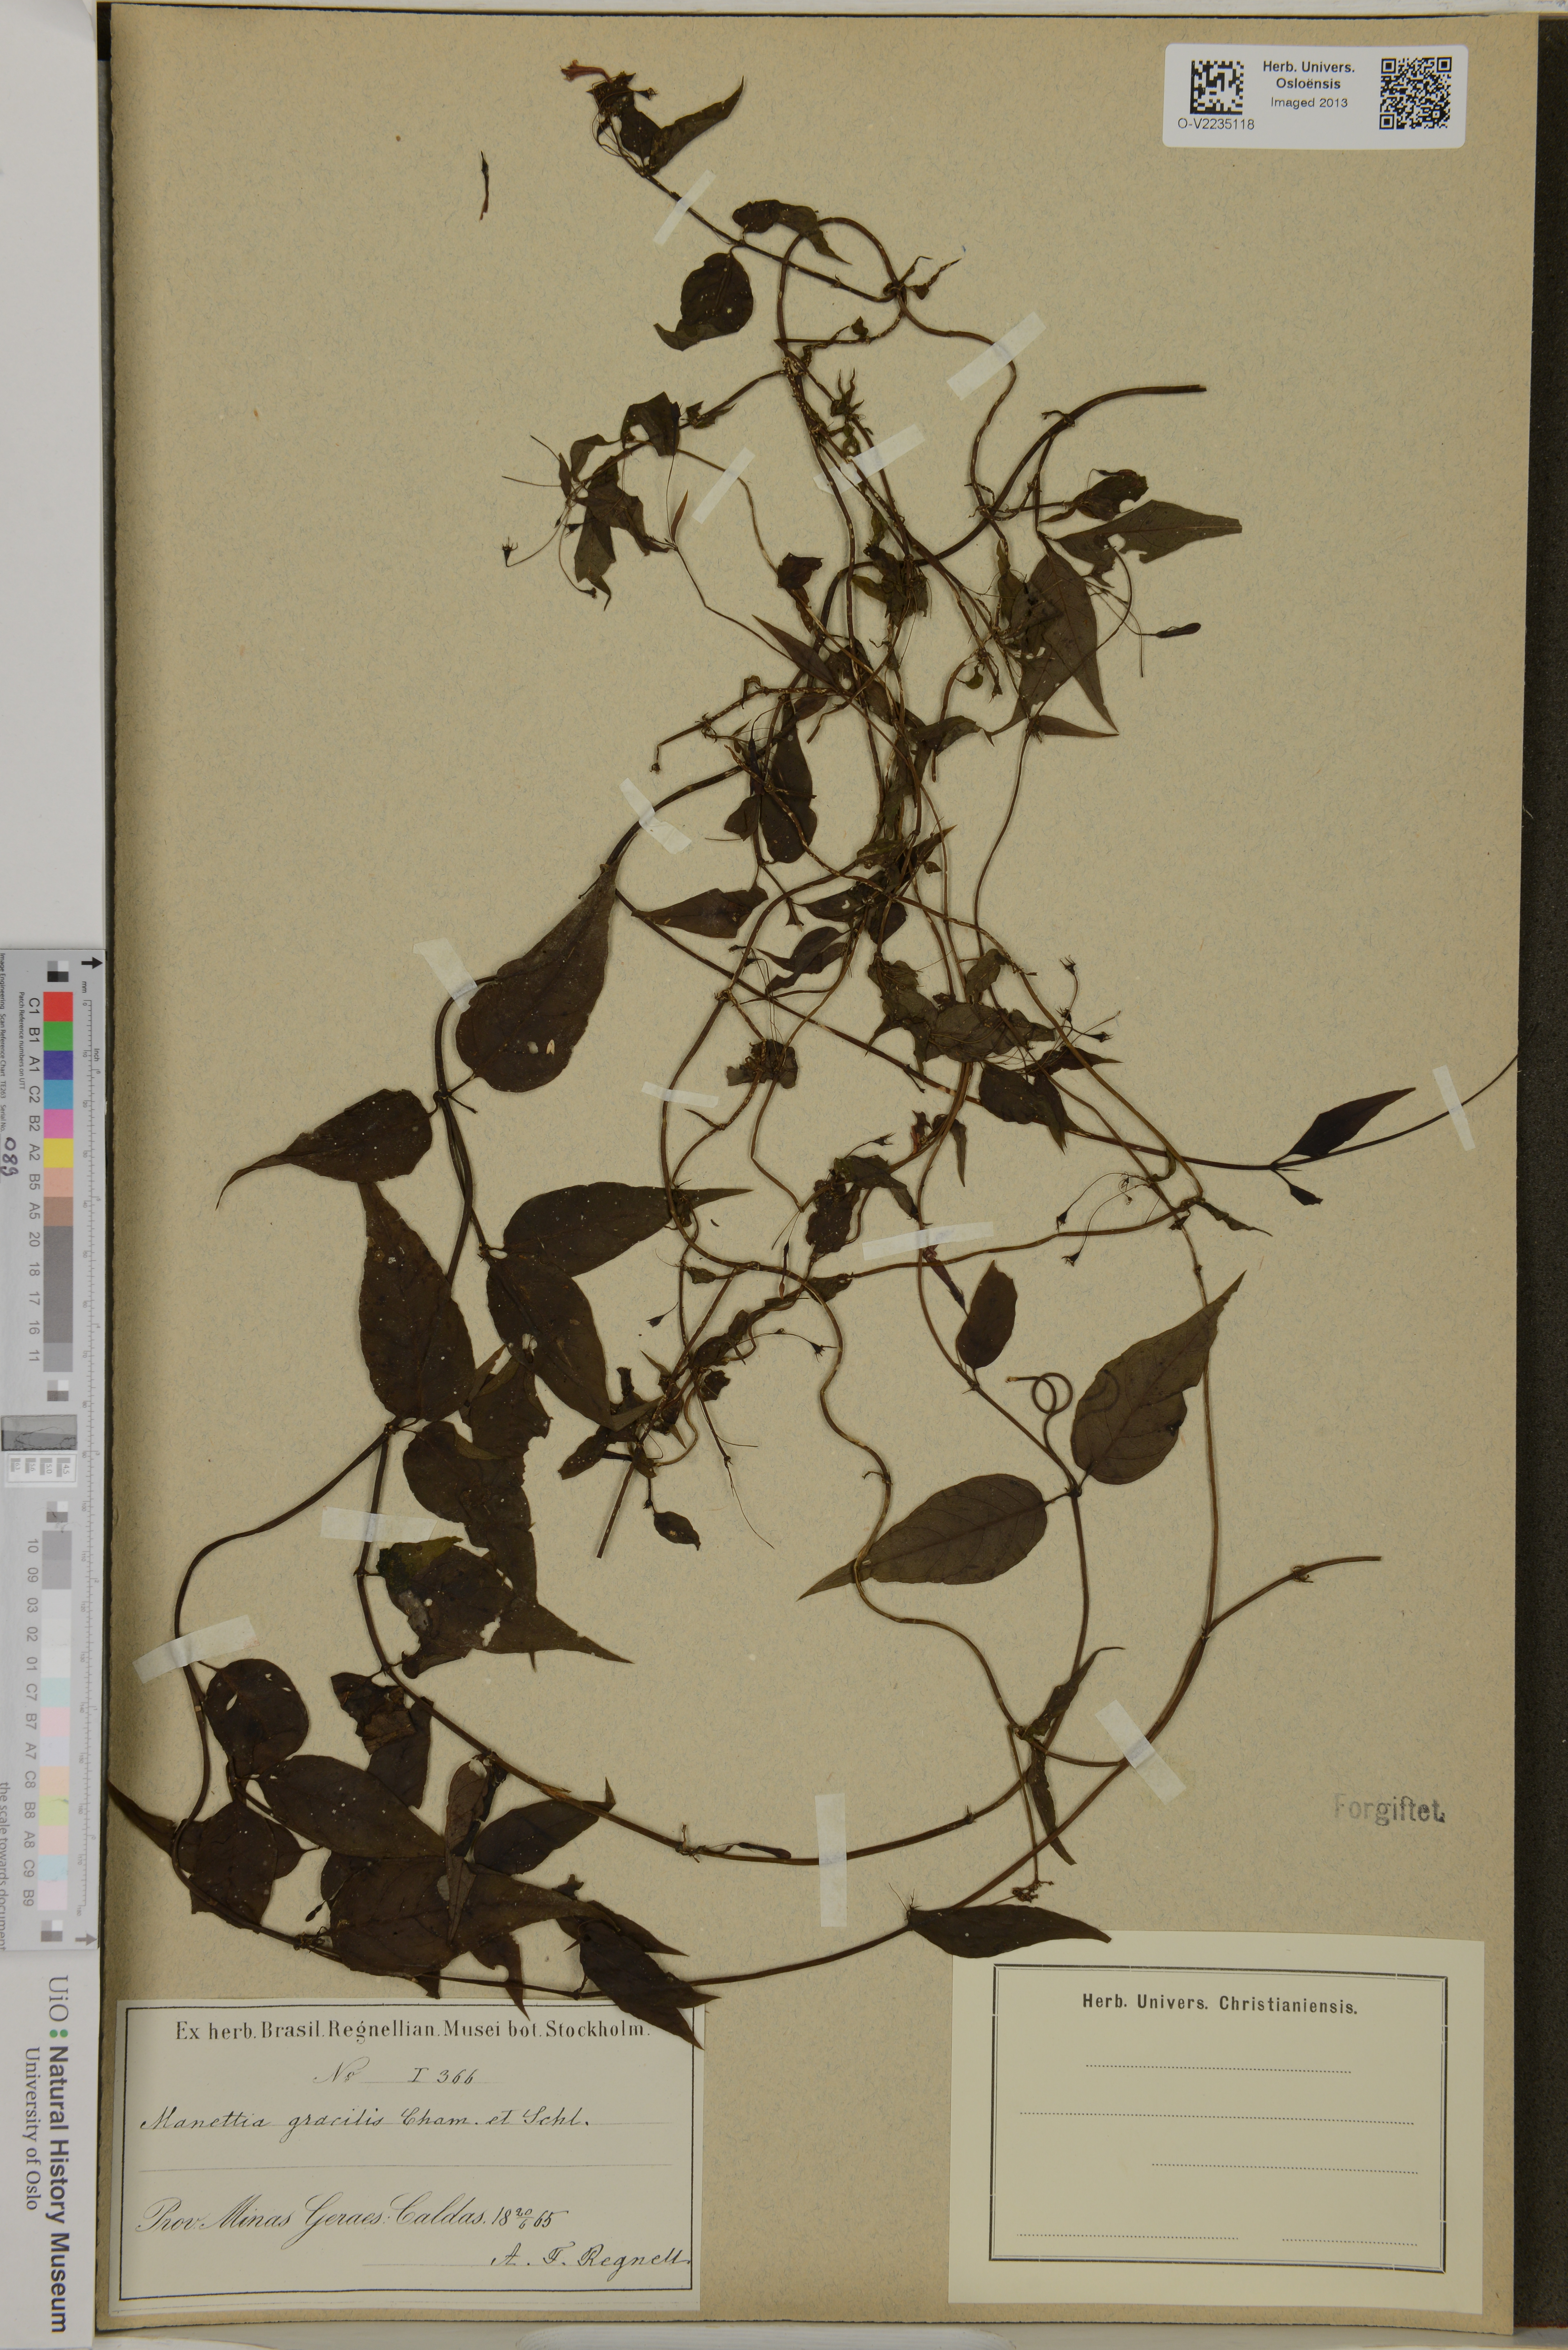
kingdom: Plantae
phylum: Tracheophyta
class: Magnoliopsida
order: Gentianales
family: Rubiaceae
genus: Manettia
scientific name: Manettia gracilis
